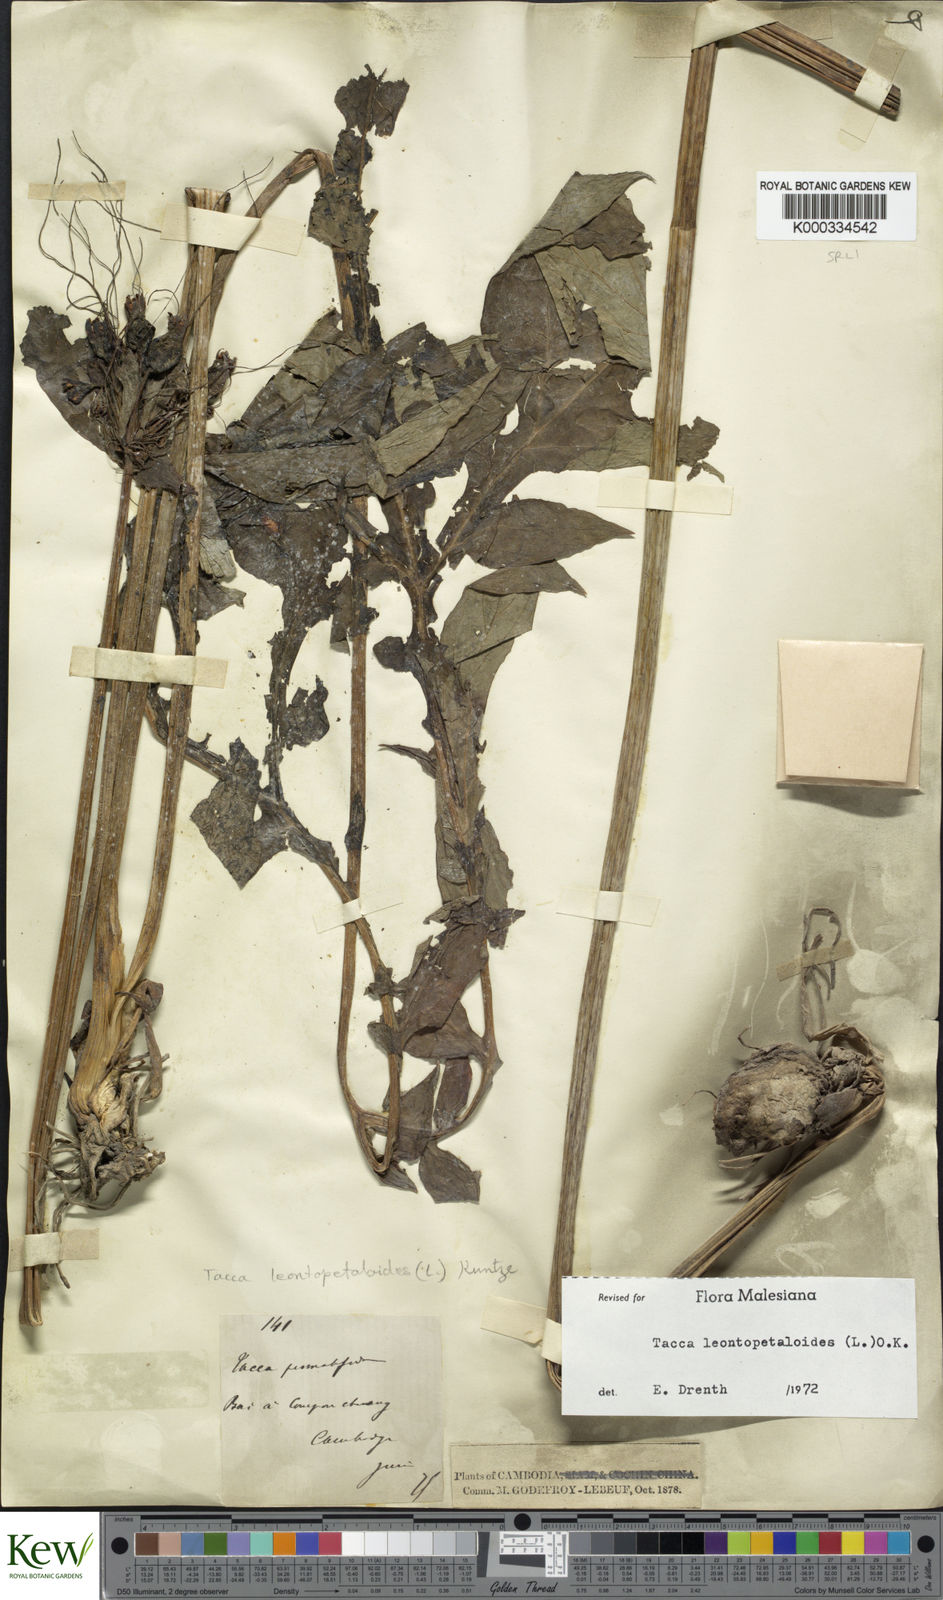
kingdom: Plantae
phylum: Tracheophyta
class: Liliopsida
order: Dioscoreales
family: Dioscoreaceae
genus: Tacca
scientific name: Tacca leontopetaloides
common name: Arrowroot
